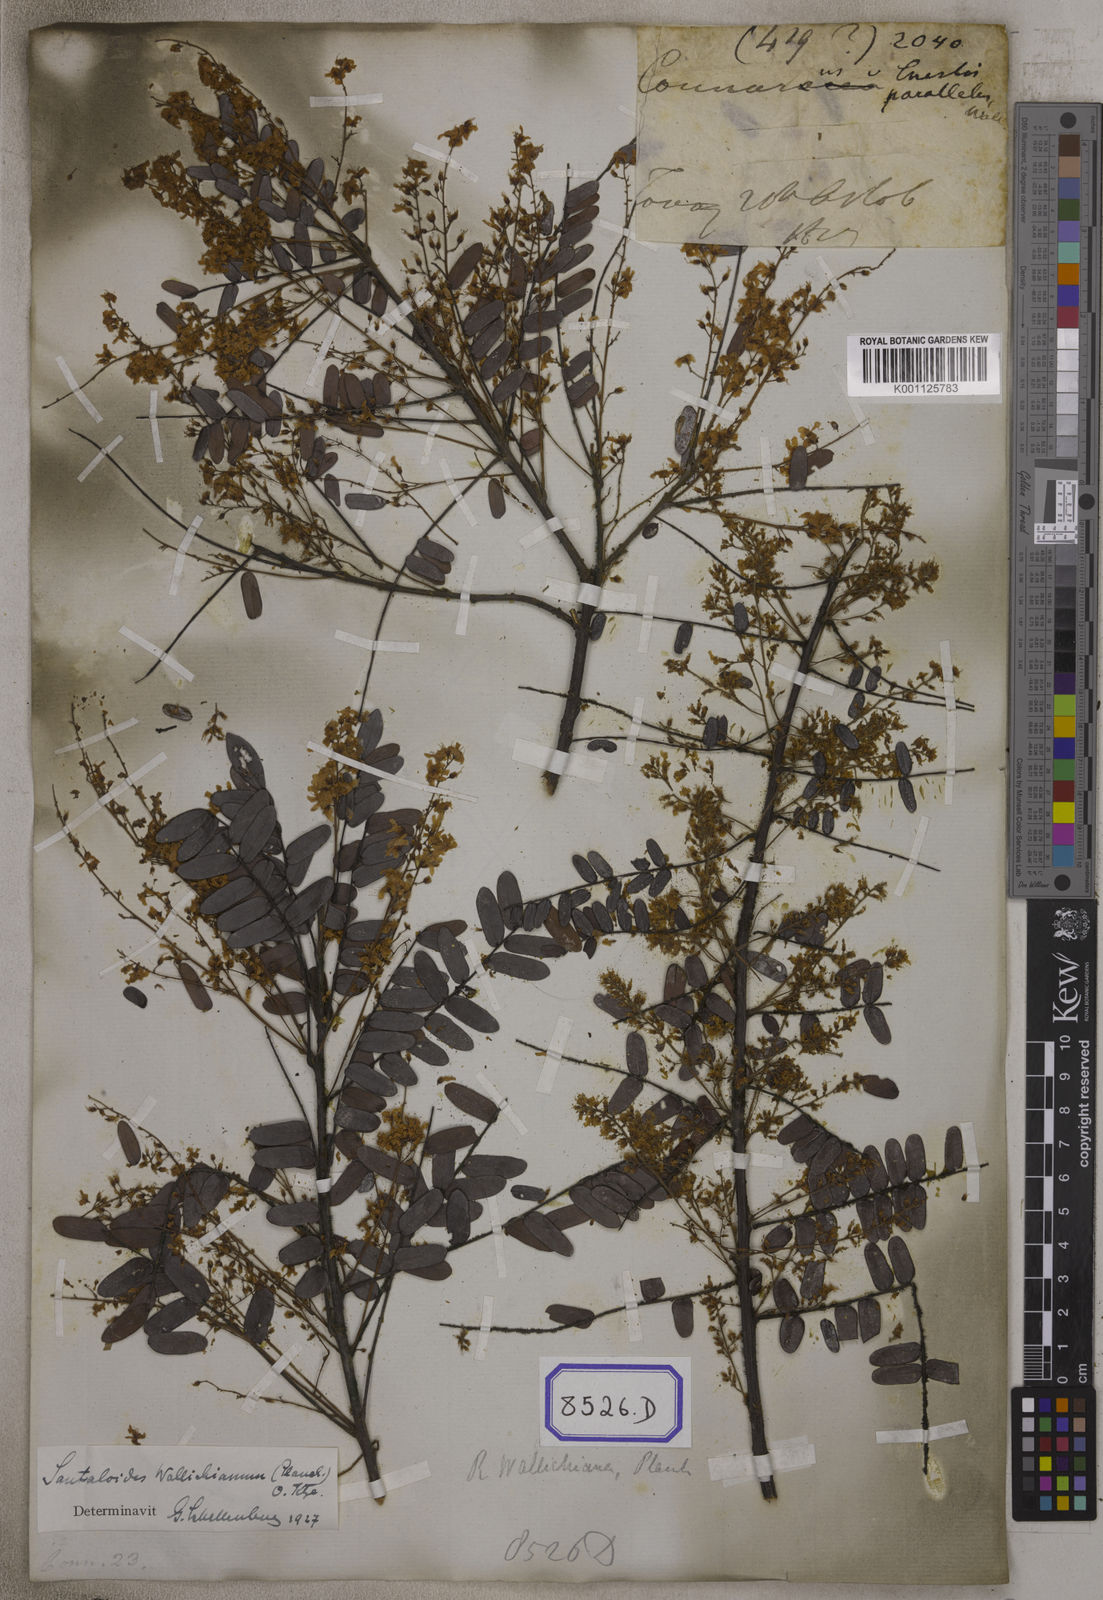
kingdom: Plantae
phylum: Tracheophyta
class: Magnoliopsida
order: Oxalidales
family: Connaraceae
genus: Connarus
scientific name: Connarus
